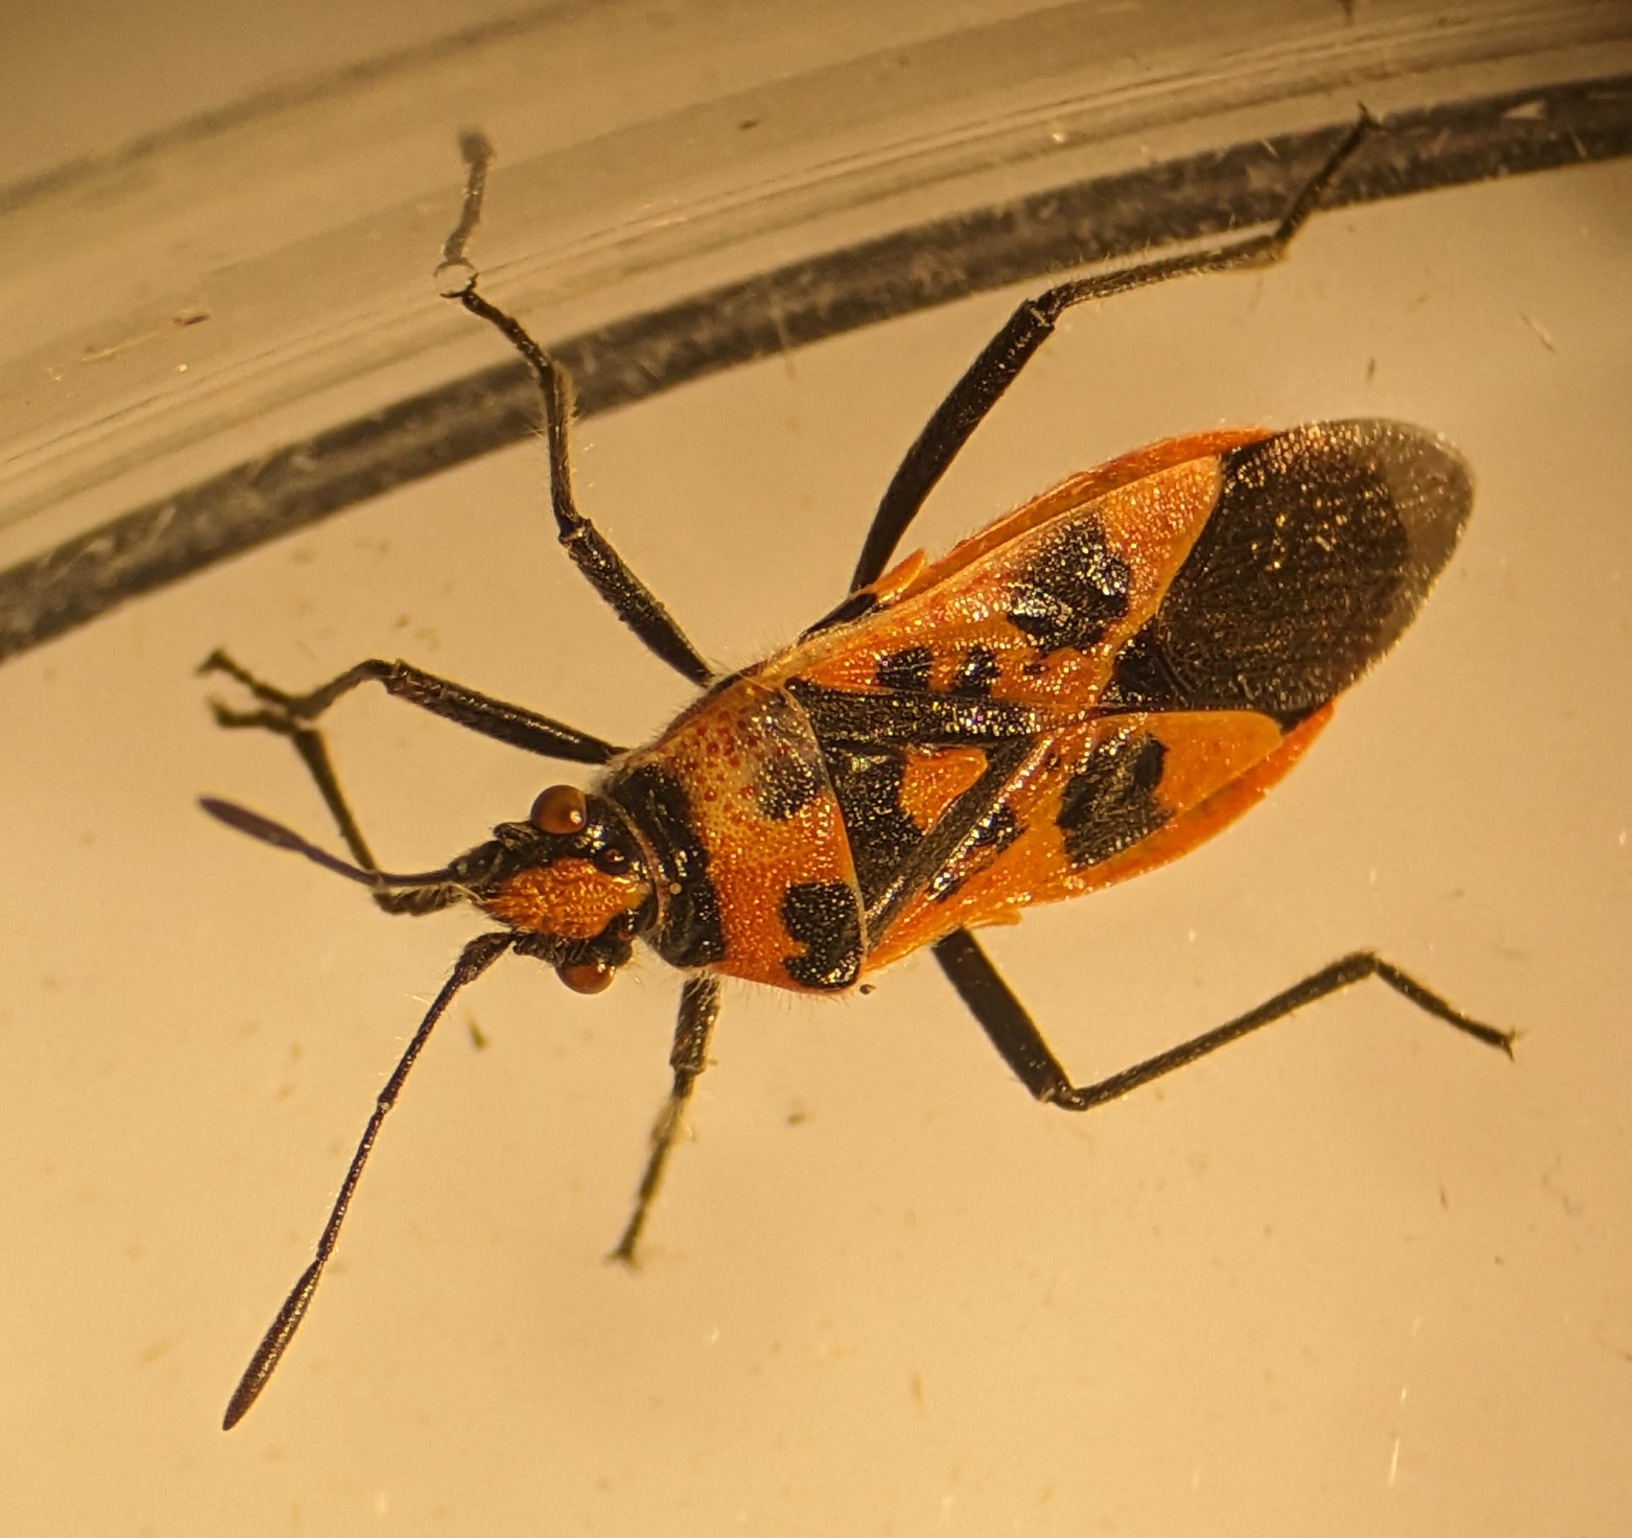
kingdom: Animalia
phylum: Arthropoda
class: Insecta
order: Hemiptera
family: Rhopalidae
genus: Corizus
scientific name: Corizus hyoscyami
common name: Rød kanttæge
